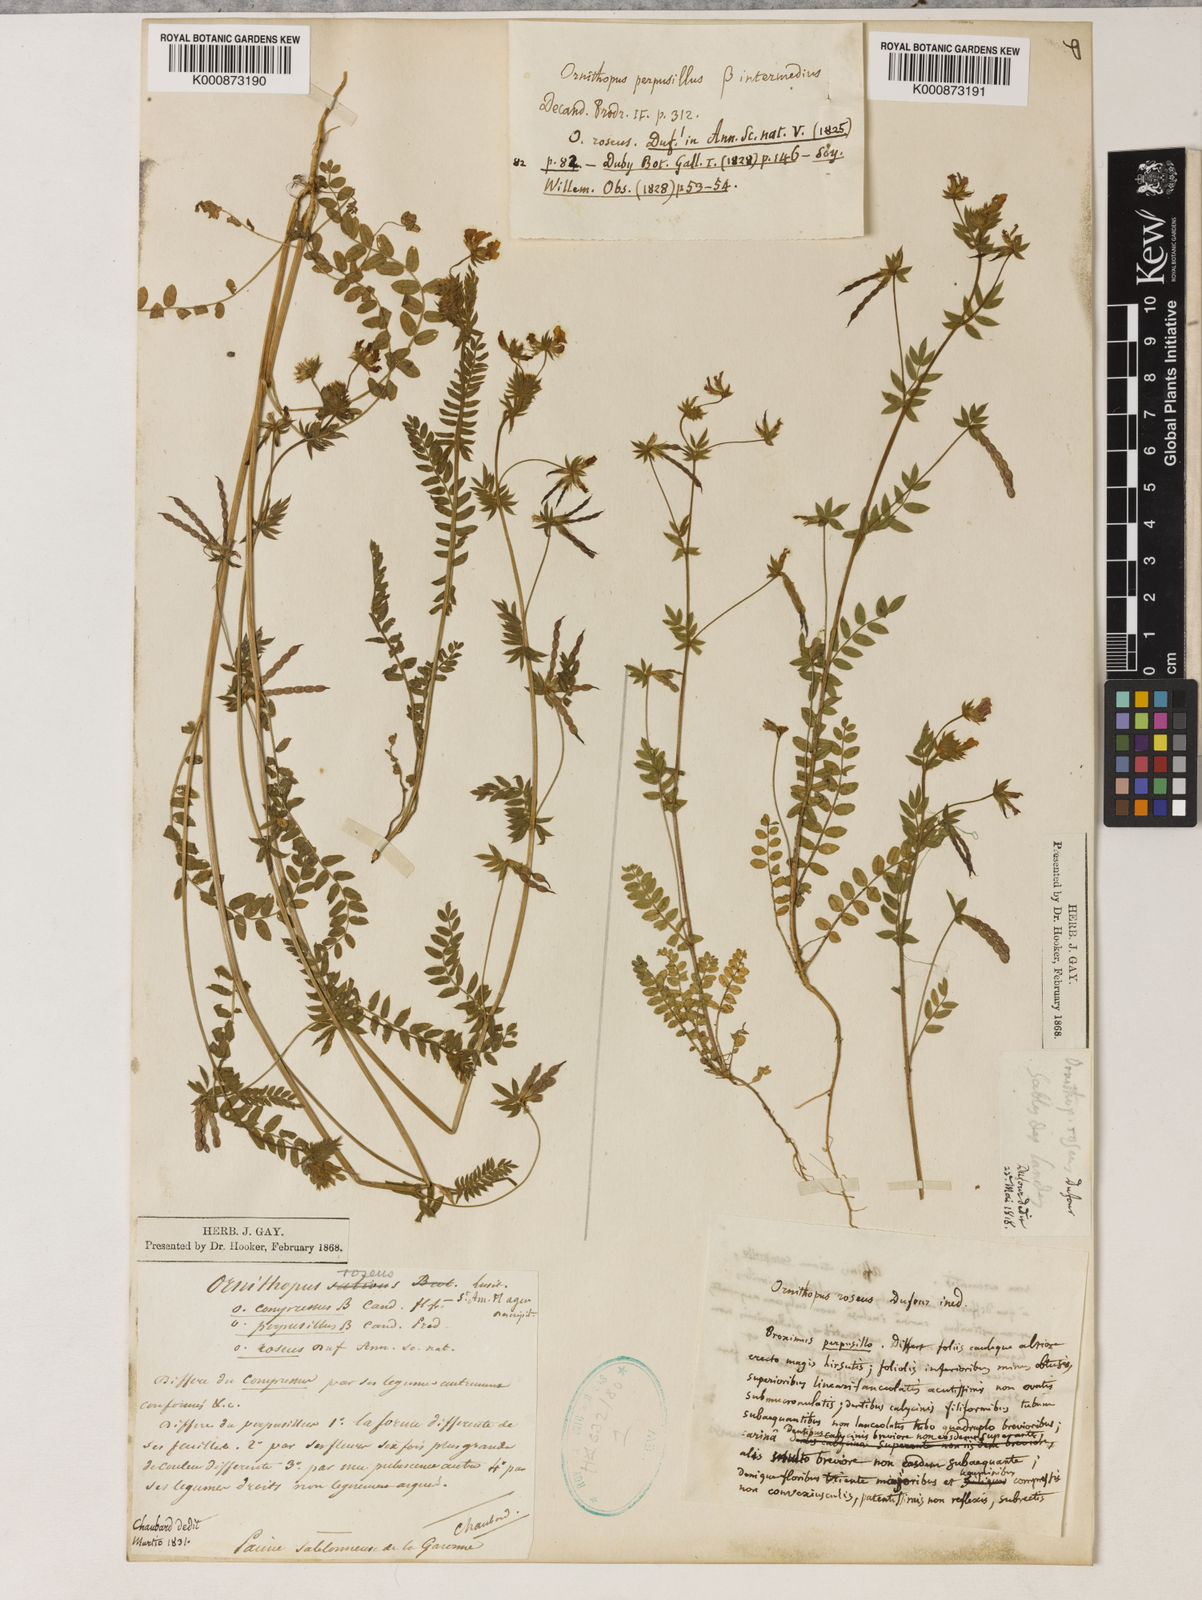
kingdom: Plantae
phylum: Tracheophyta
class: Magnoliopsida
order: Fabales
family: Fabaceae
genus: Ornithopus
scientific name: Ornithopus sativus
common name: Serradella
